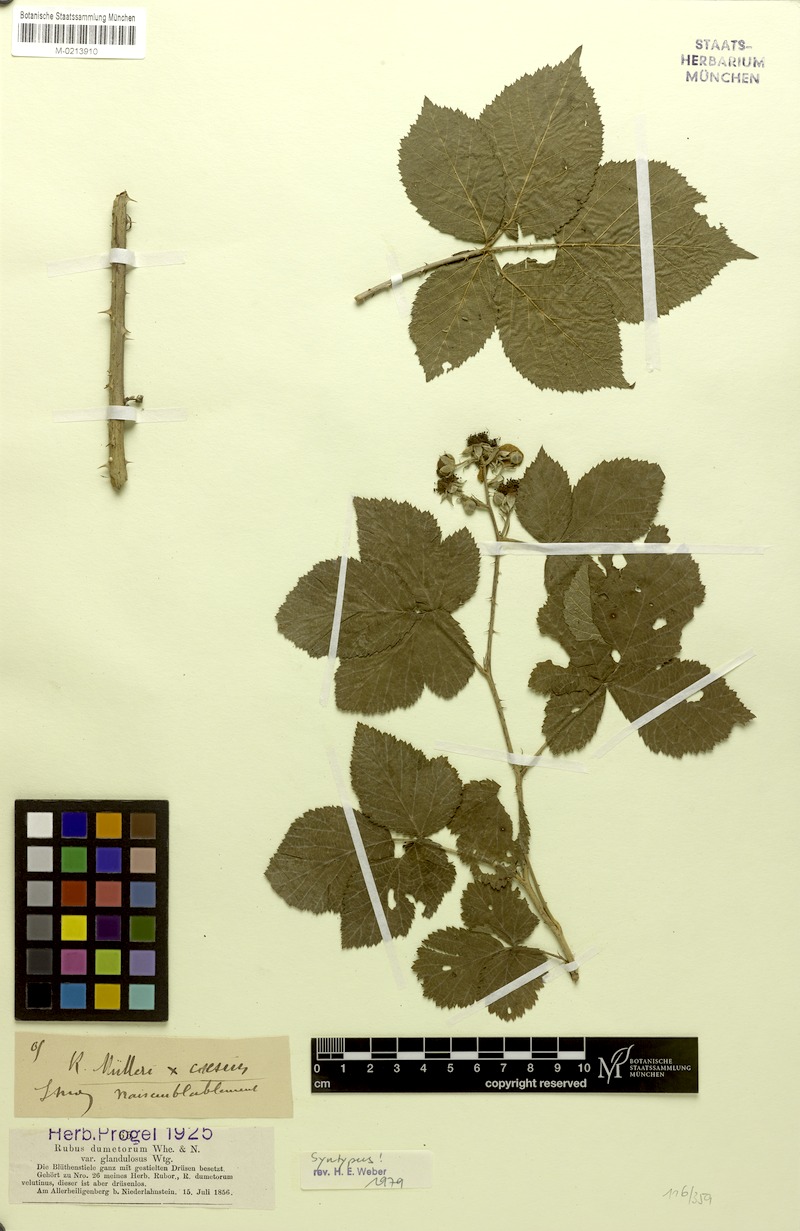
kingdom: Plantae
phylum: Tracheophyta
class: Magnoliopsida
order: Rosales
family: Rosaceae
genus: Rubus
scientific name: Rubus dumetorum
